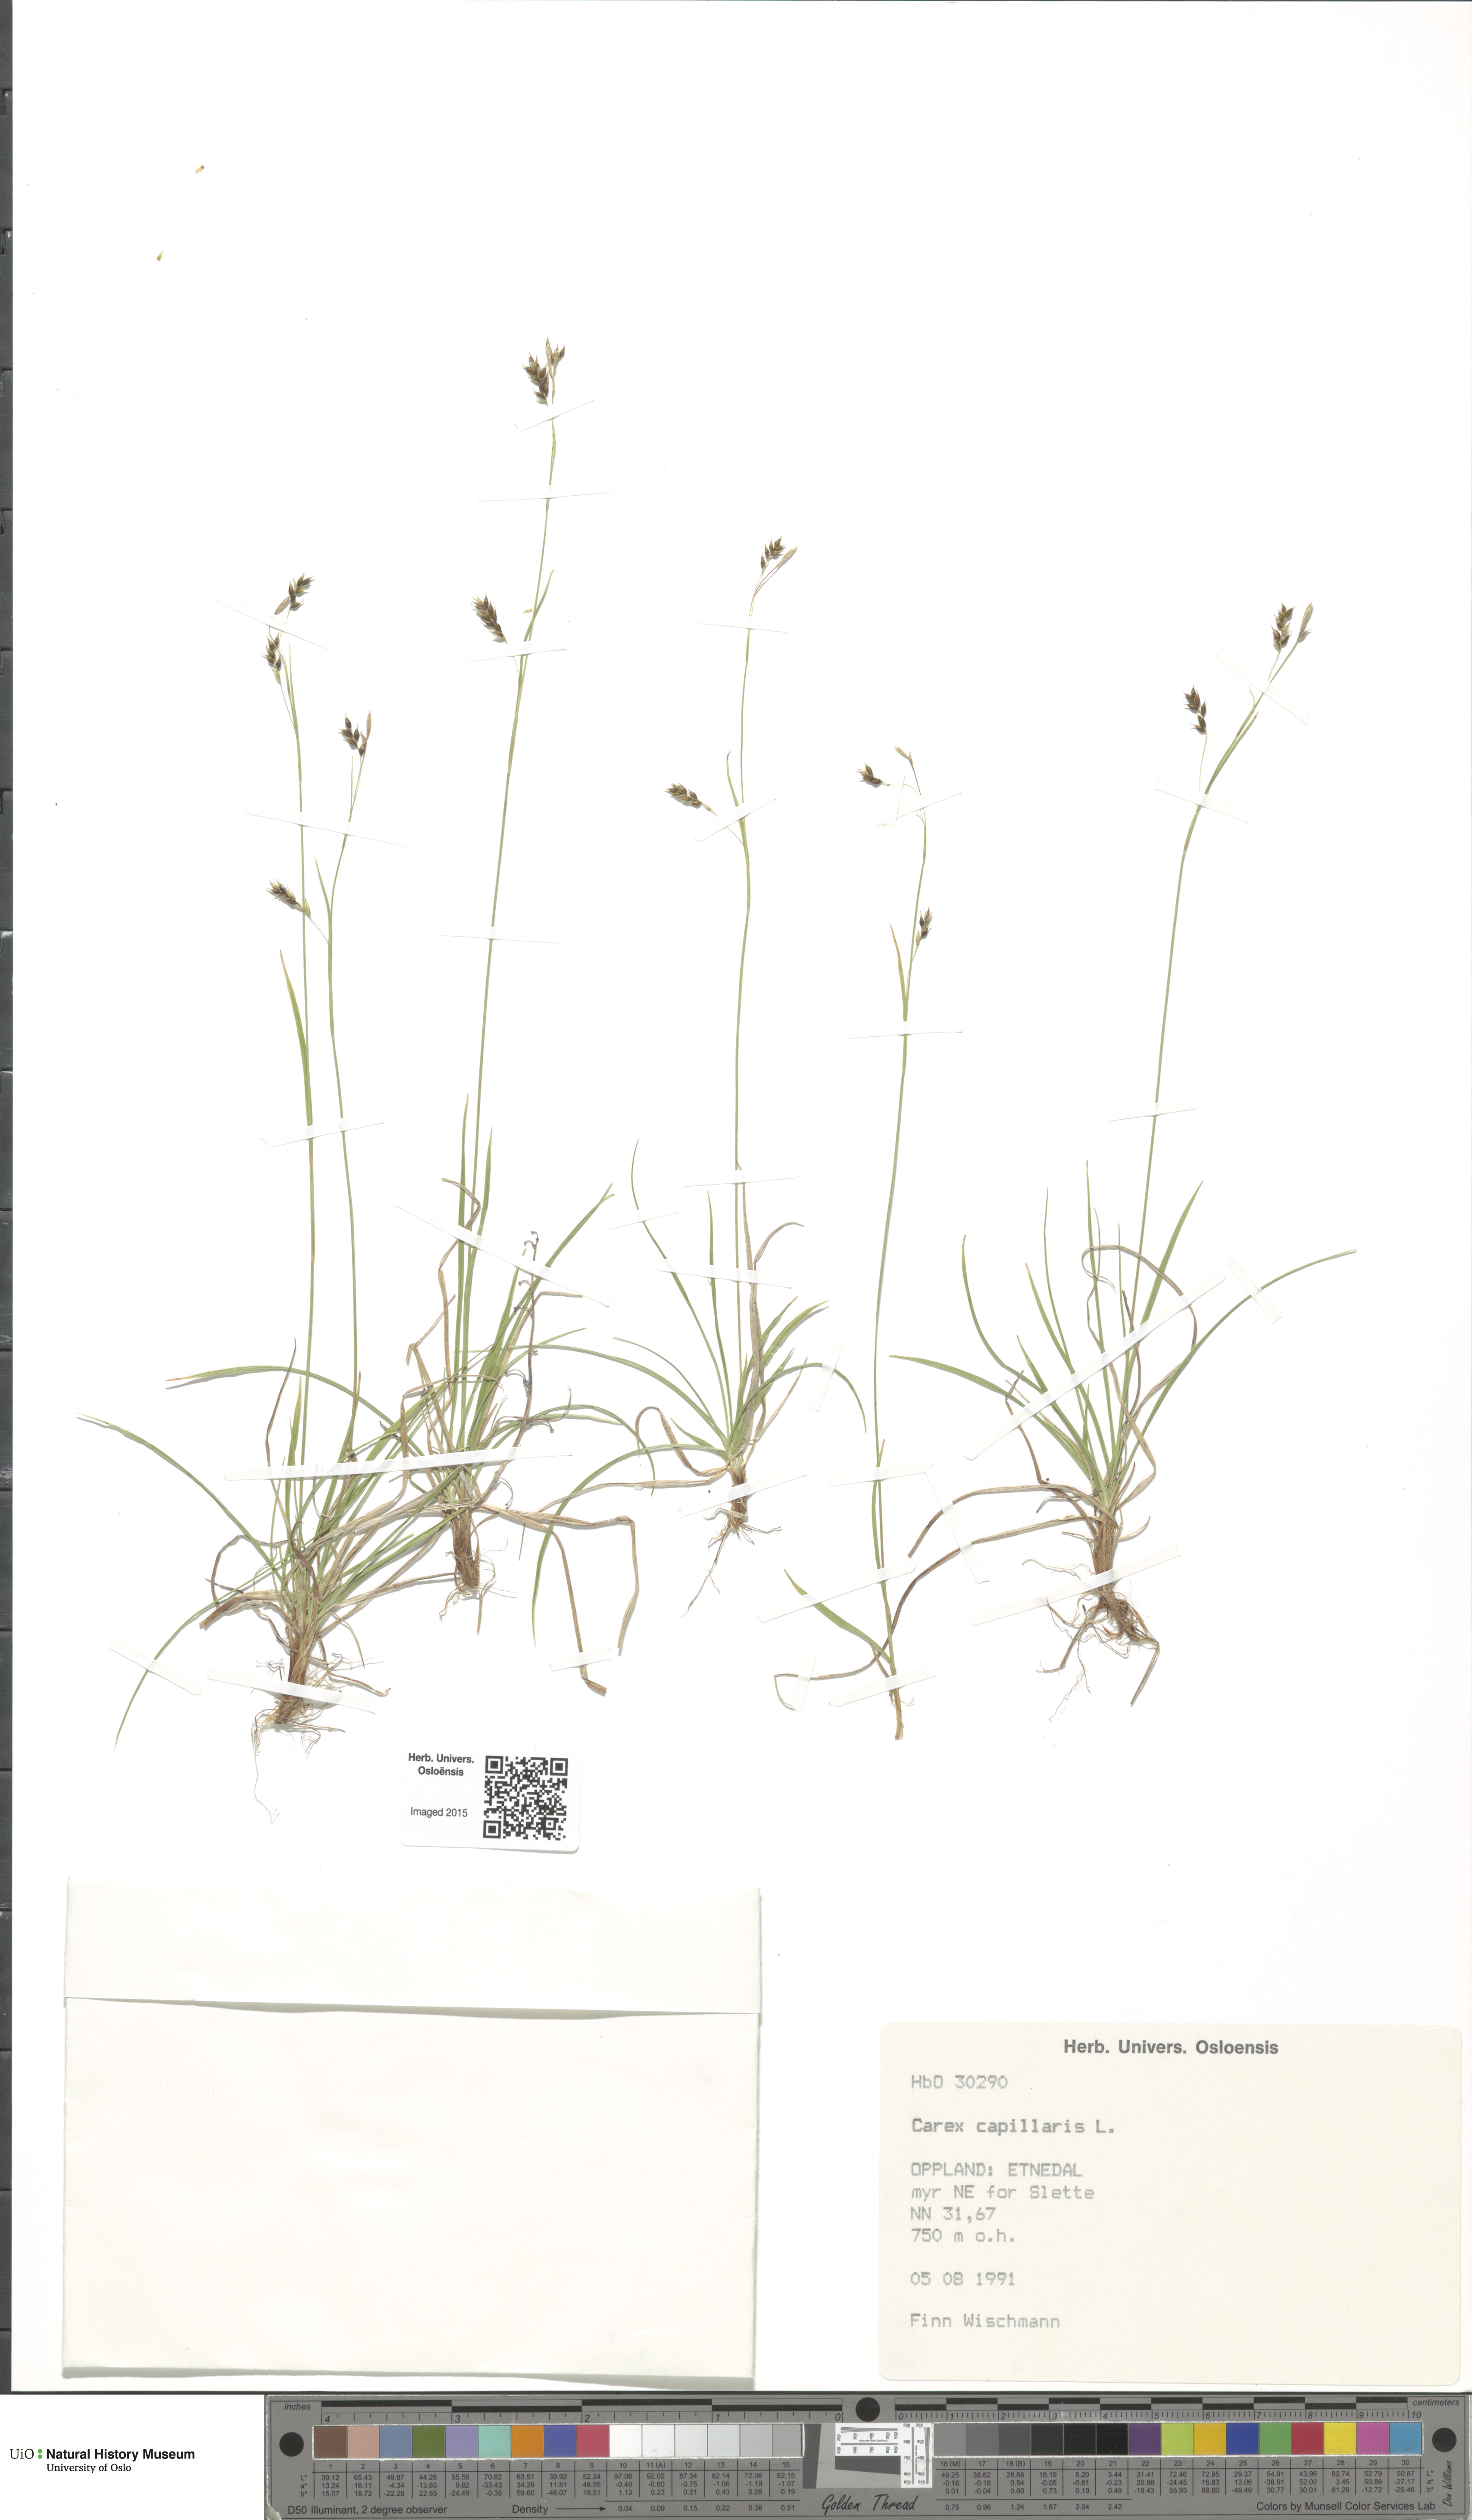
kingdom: Plantae
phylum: Tracheophyta
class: Liliopsida
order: Poales
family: Cyperaceae
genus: Carex
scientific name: Carex capillaris
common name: Hair sedge
